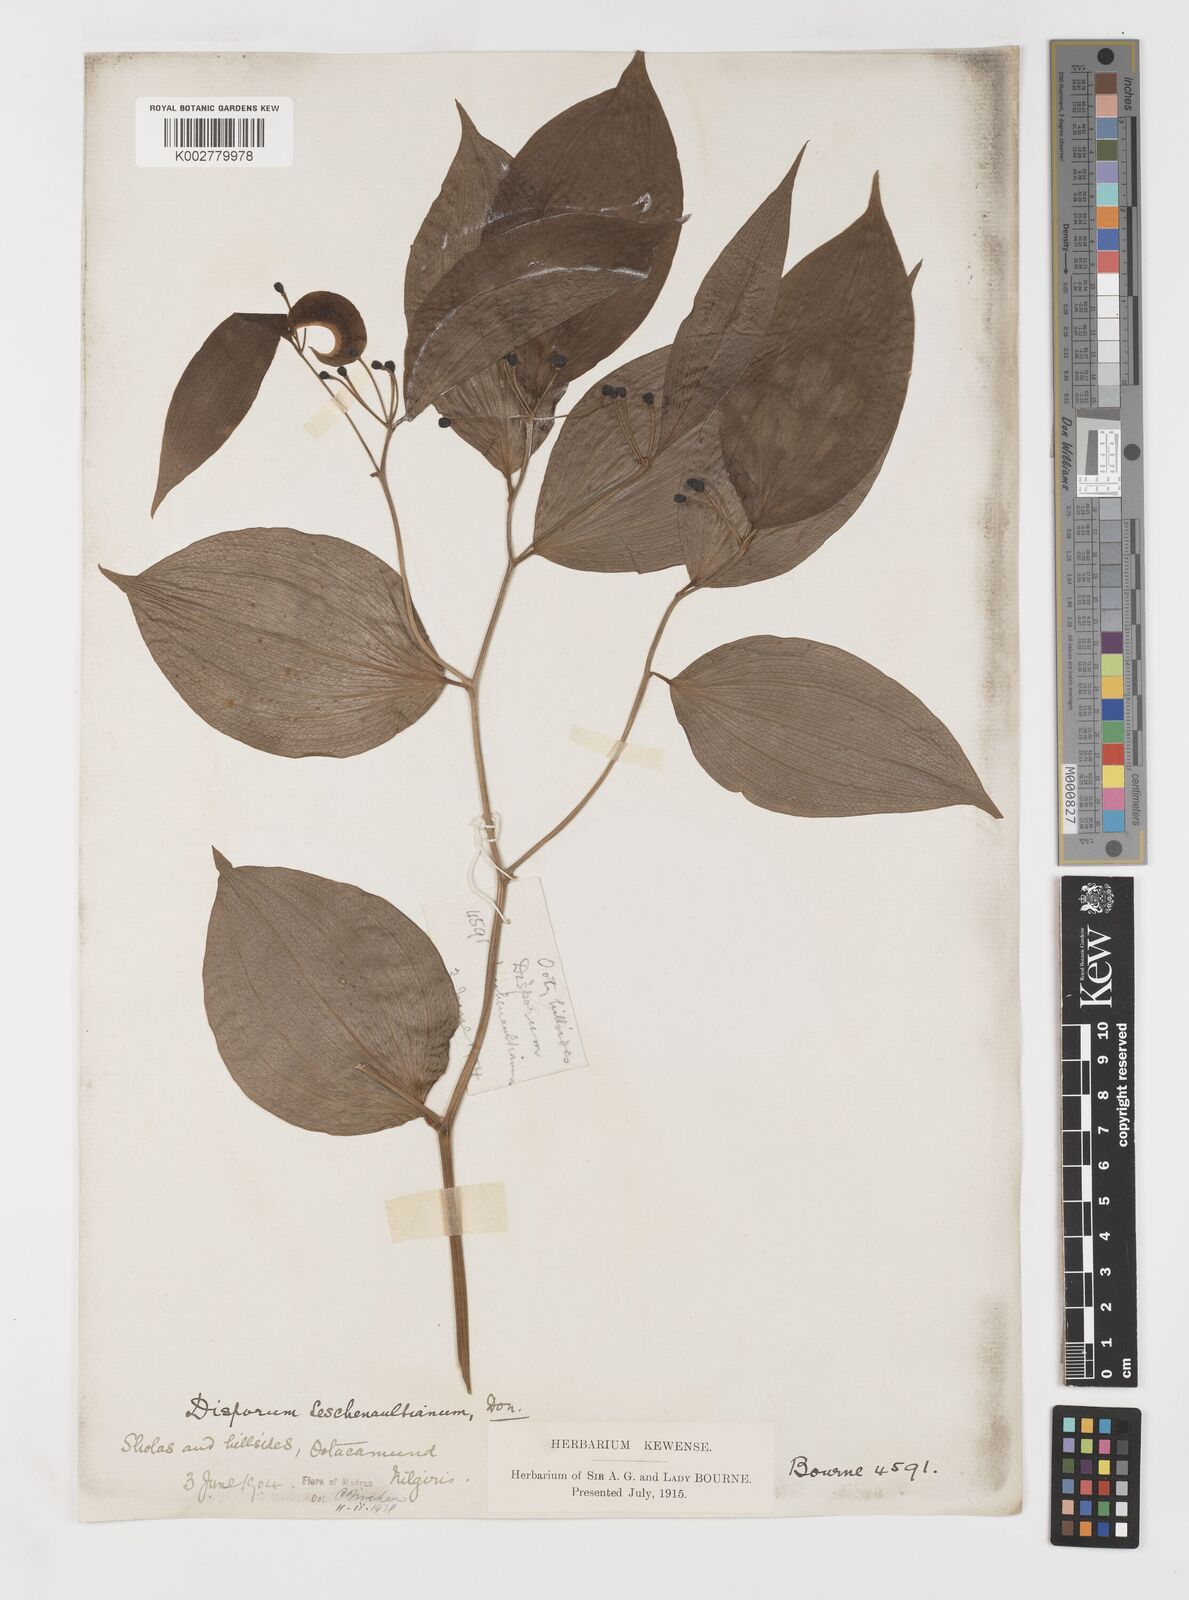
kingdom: Plantae
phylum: Tracheophyta
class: Liliopsida
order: Liliales
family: Colchicaceae
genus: Disporum
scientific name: Disporum cantoniense
